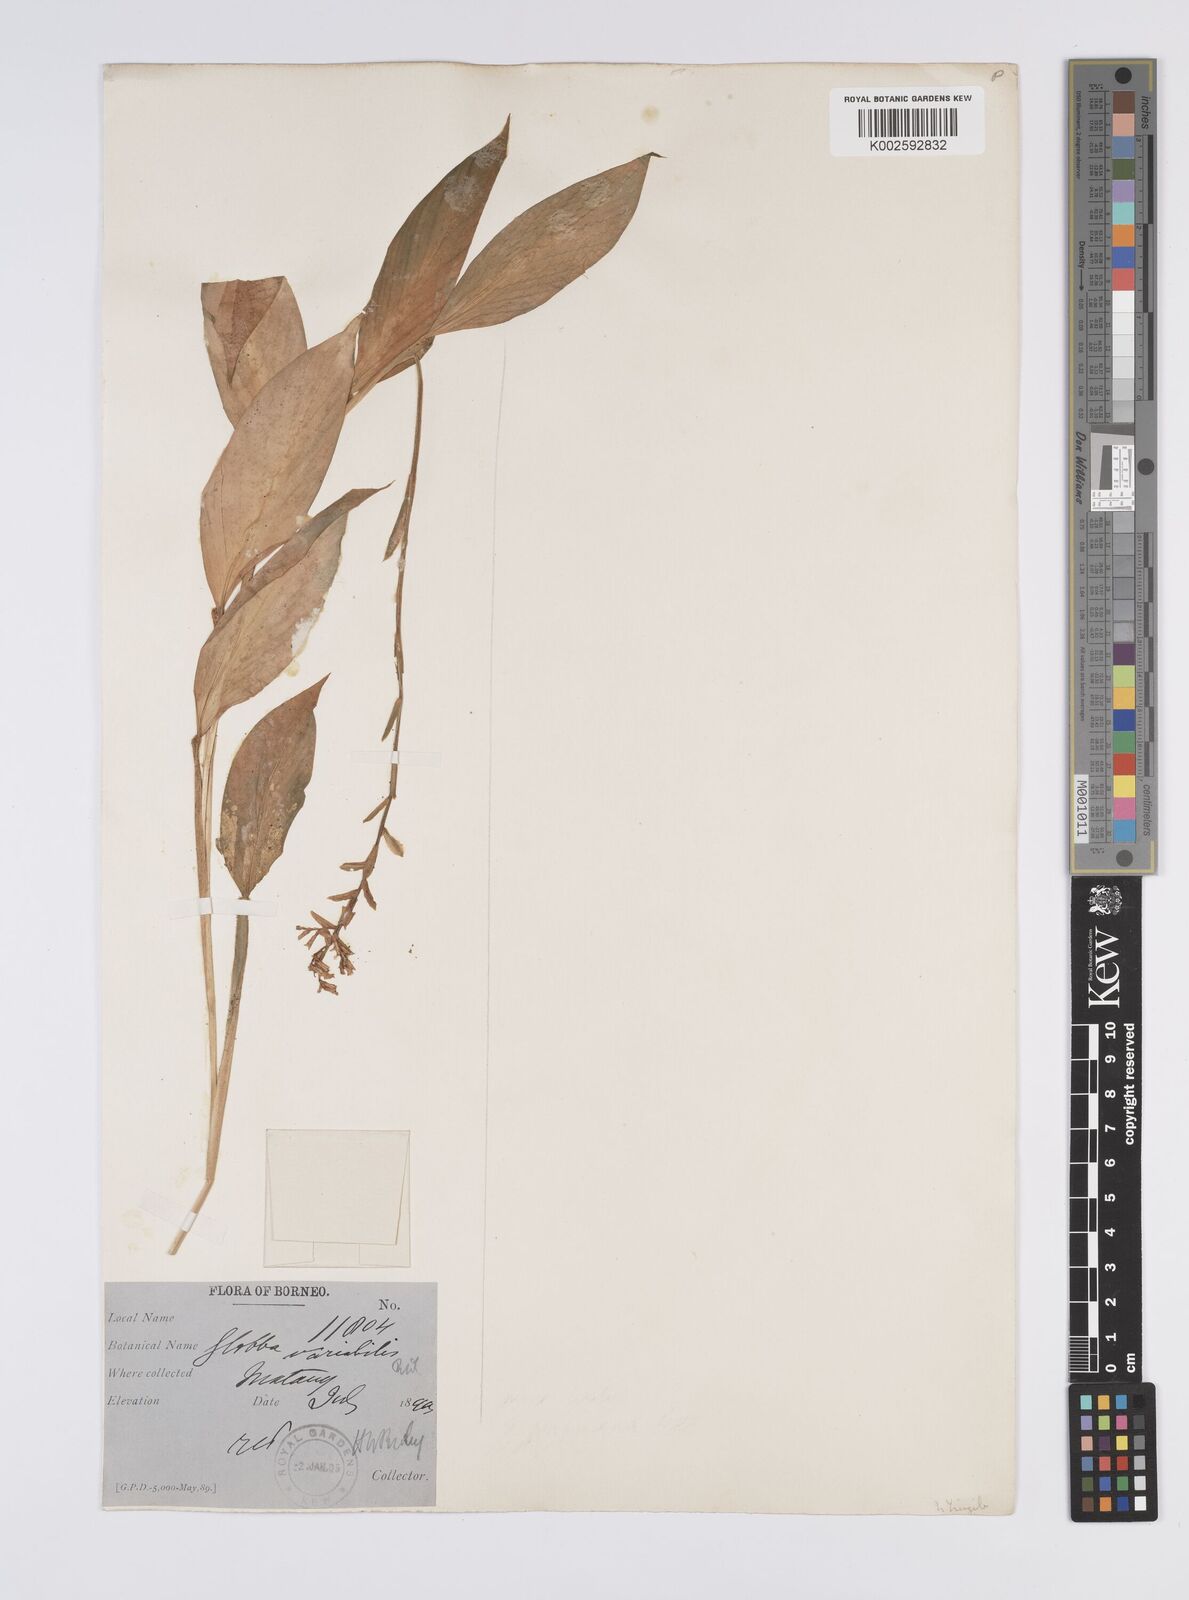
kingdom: Plantae
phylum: Tracheophyta
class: Liliopsida
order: Zingiberales
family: Zingiberaceae
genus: Globba
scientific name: Globba atrosanguinea
